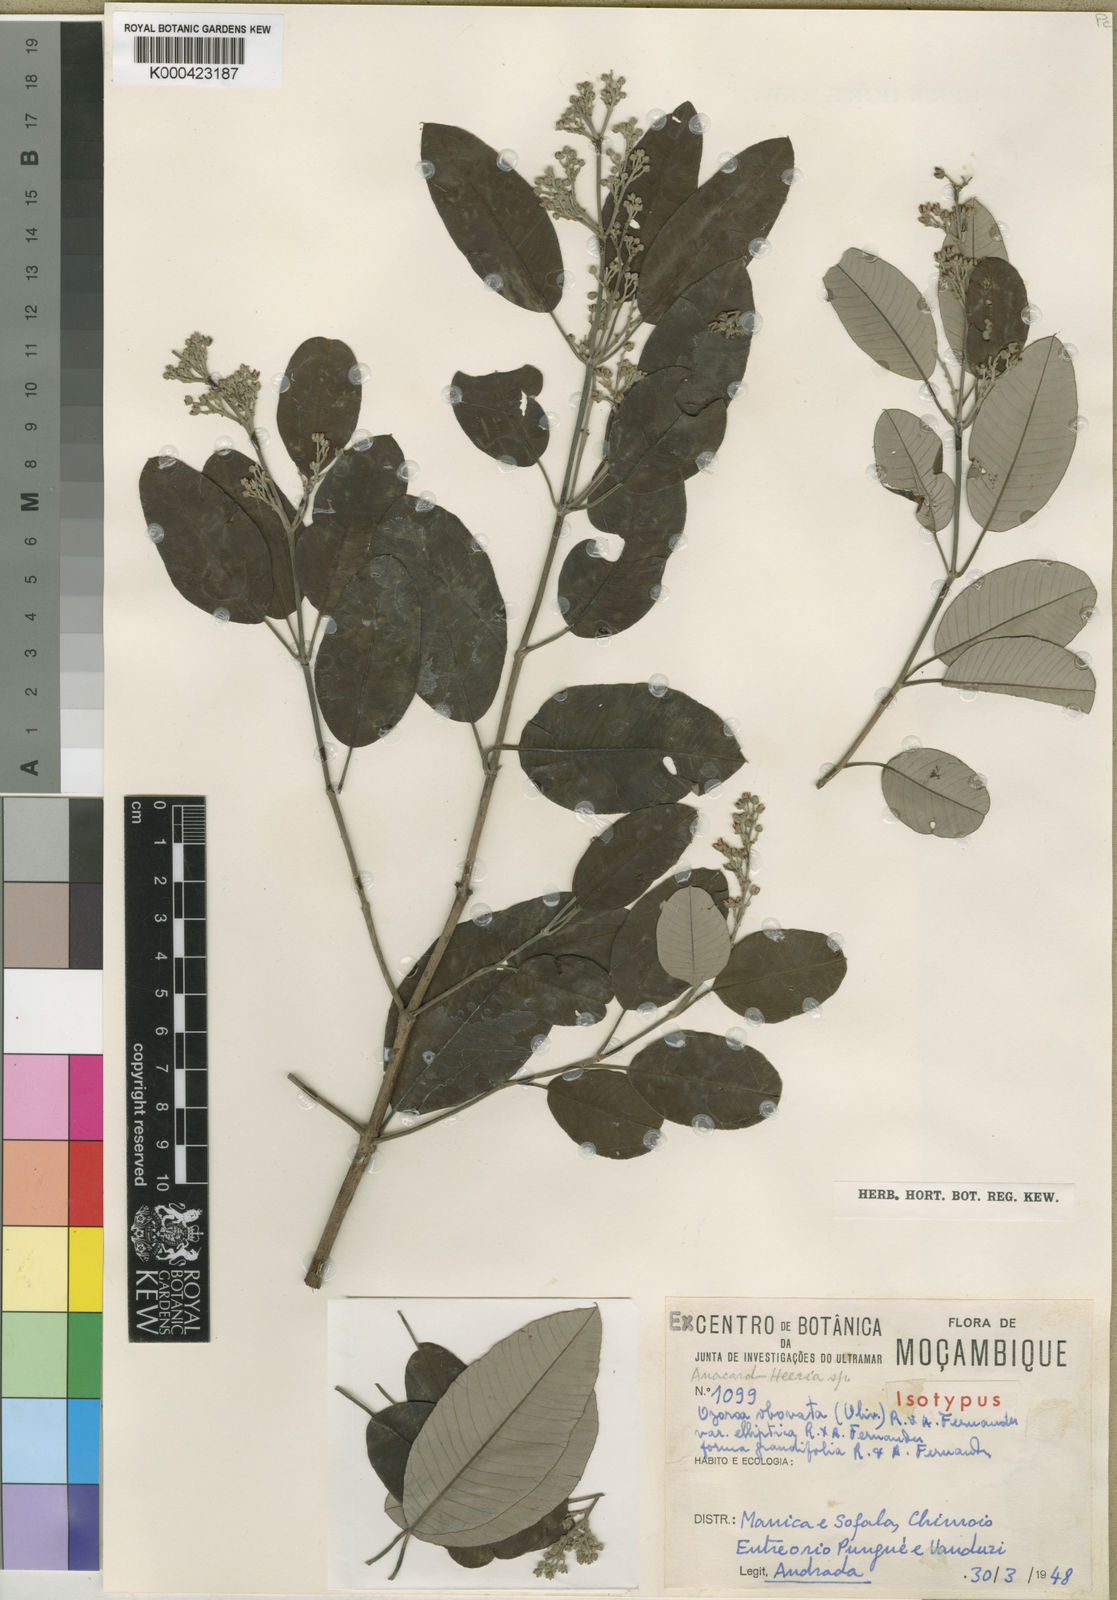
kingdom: Plantae
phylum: Tracheophyta
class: Magnoliopsida
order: Sapindales
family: Anacardiaceae
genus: Ozoroa
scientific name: Ozoroa obovata
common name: Broad-leaved resin tree
